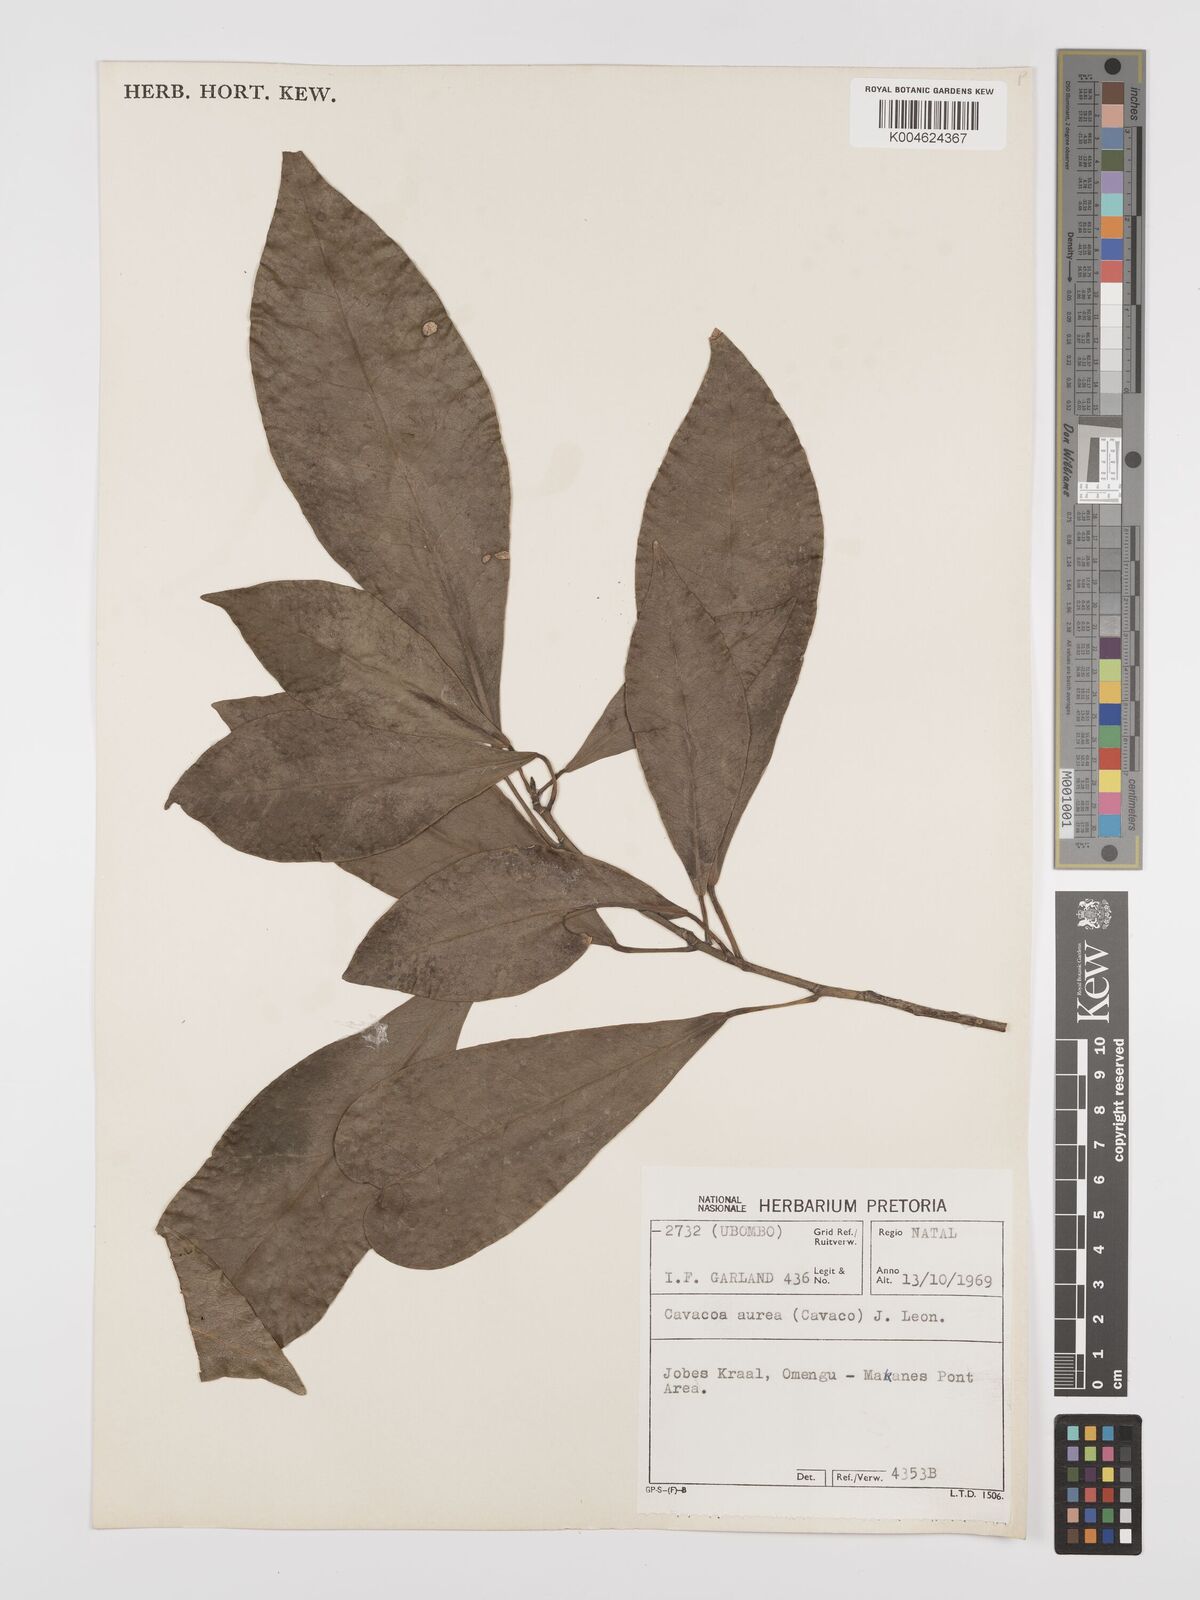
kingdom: Plantae
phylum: Tracheophyta
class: Magnoliopsida
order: Malpighiales
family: Euphorbiaceae
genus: Cavacoa
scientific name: Cavacoa aurea
